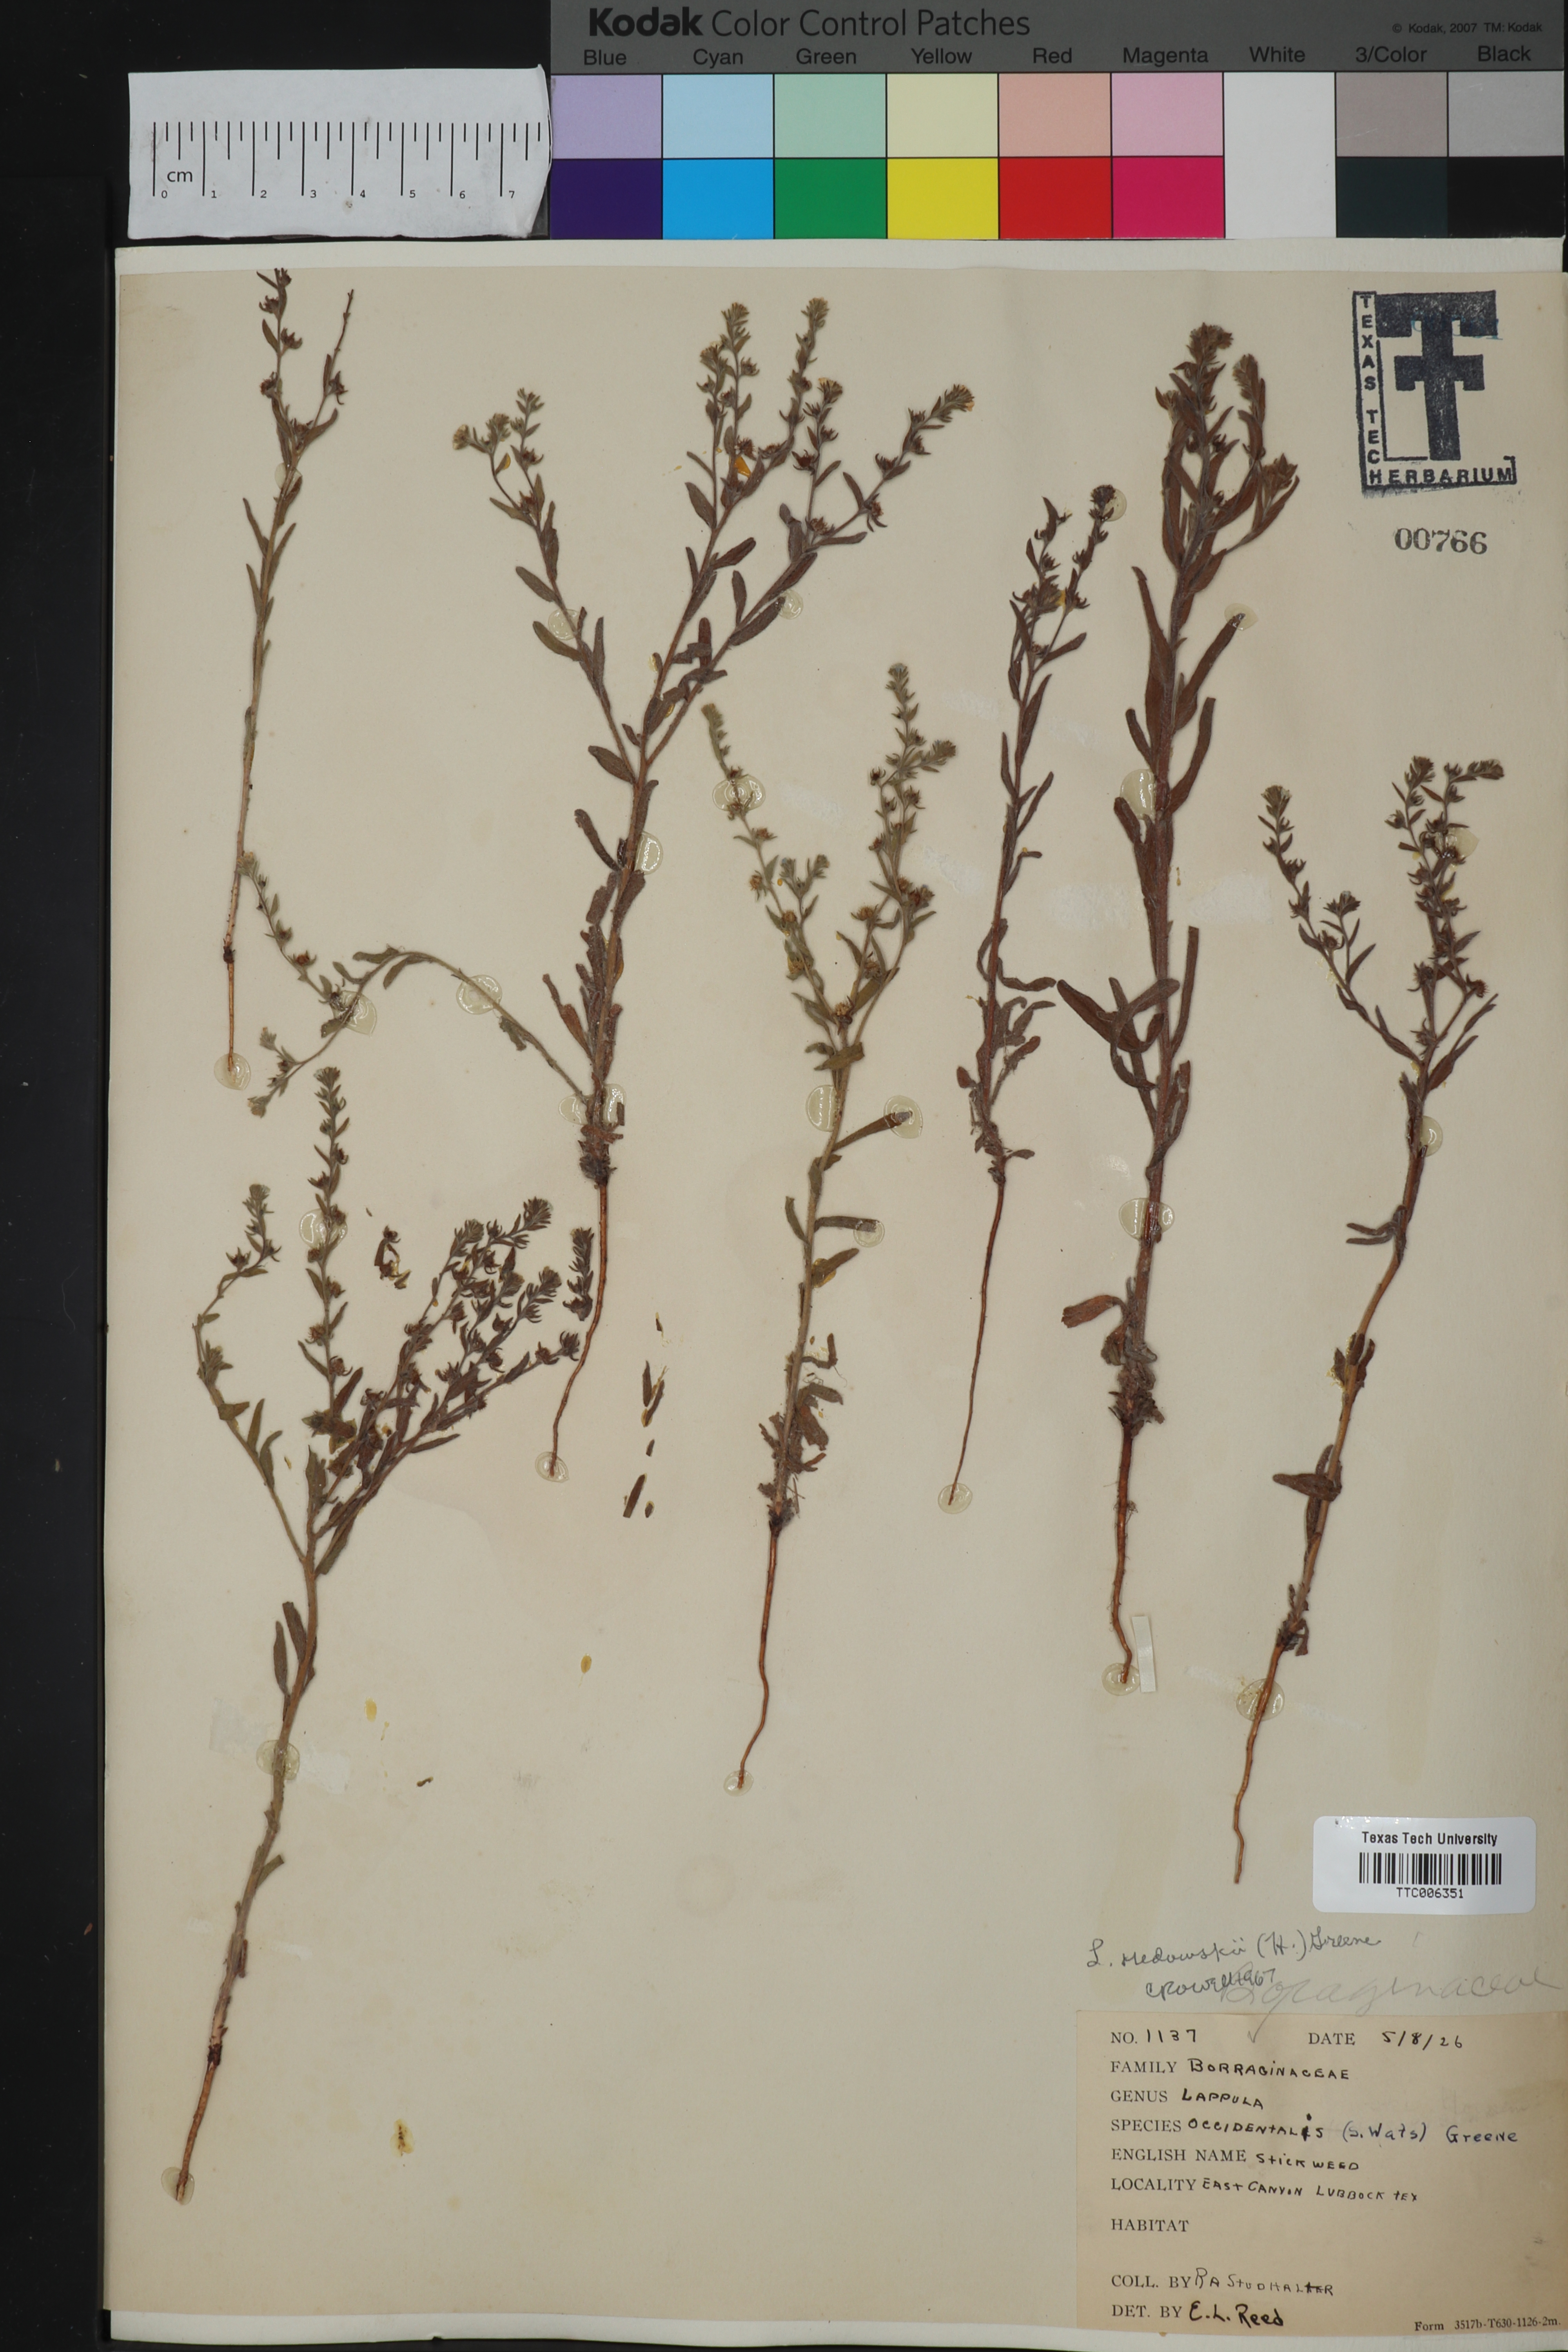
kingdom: Plantae
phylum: Tracheophyta
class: Magnoliopsida
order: Boraginales
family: Boraginaceae
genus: Lappula
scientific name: Lappula redowskii
